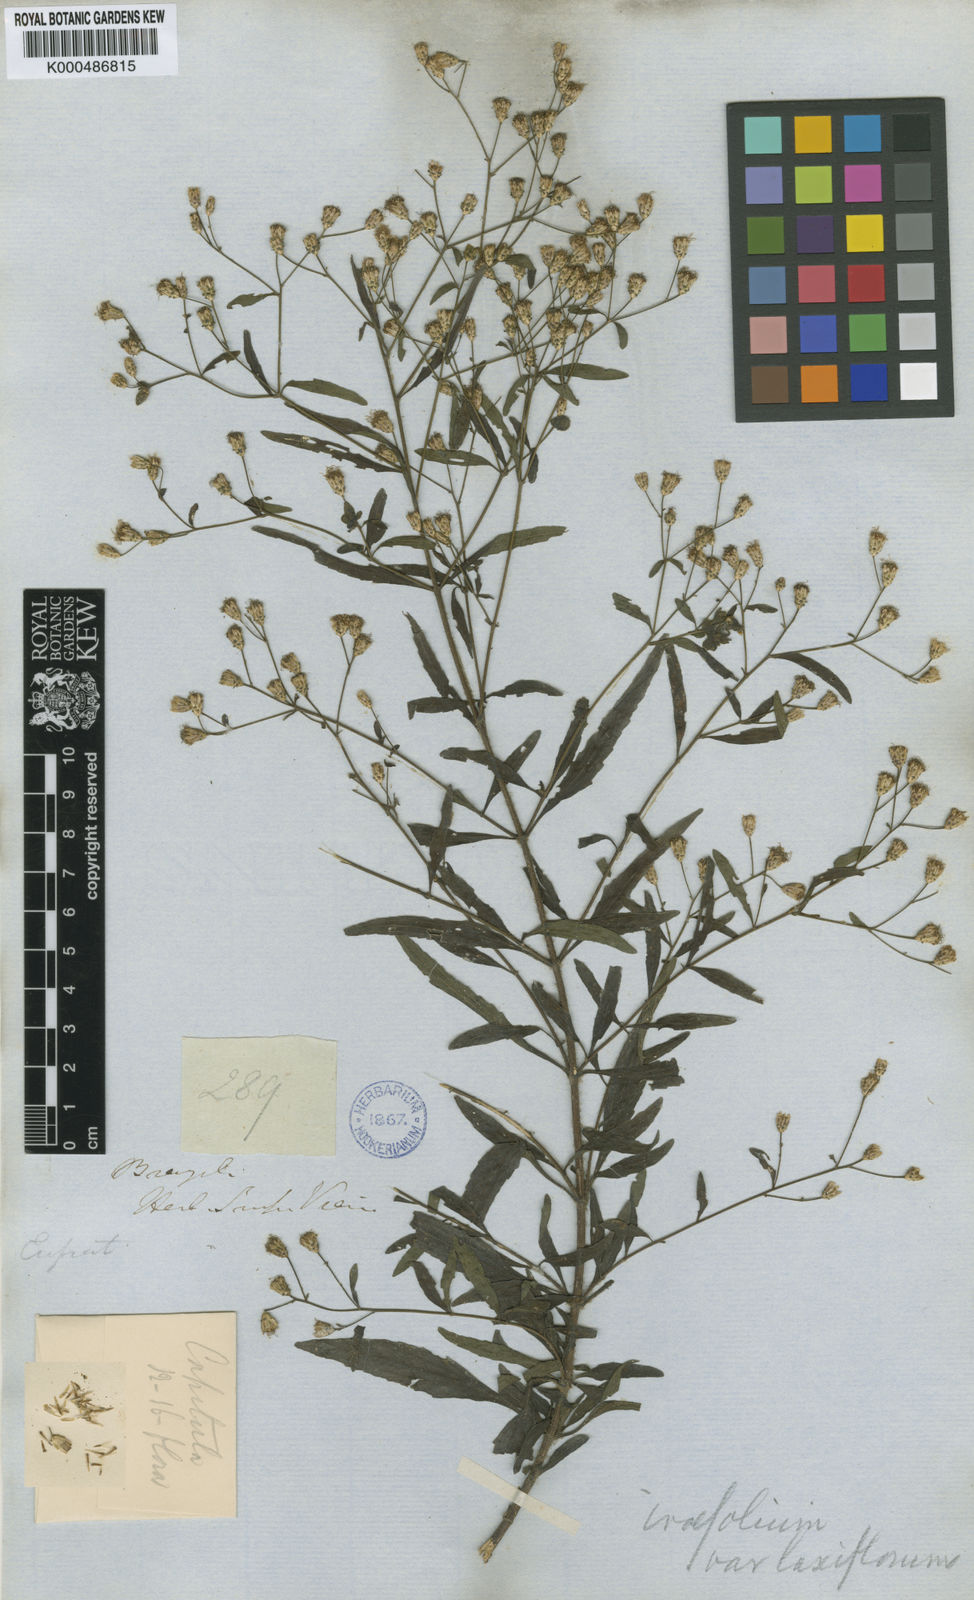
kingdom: Plantae
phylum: Tracheophyta
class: Magnoliopsida
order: Asterales
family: Asteraceae
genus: Chromolaena
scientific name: Chromolaena ivifolia
